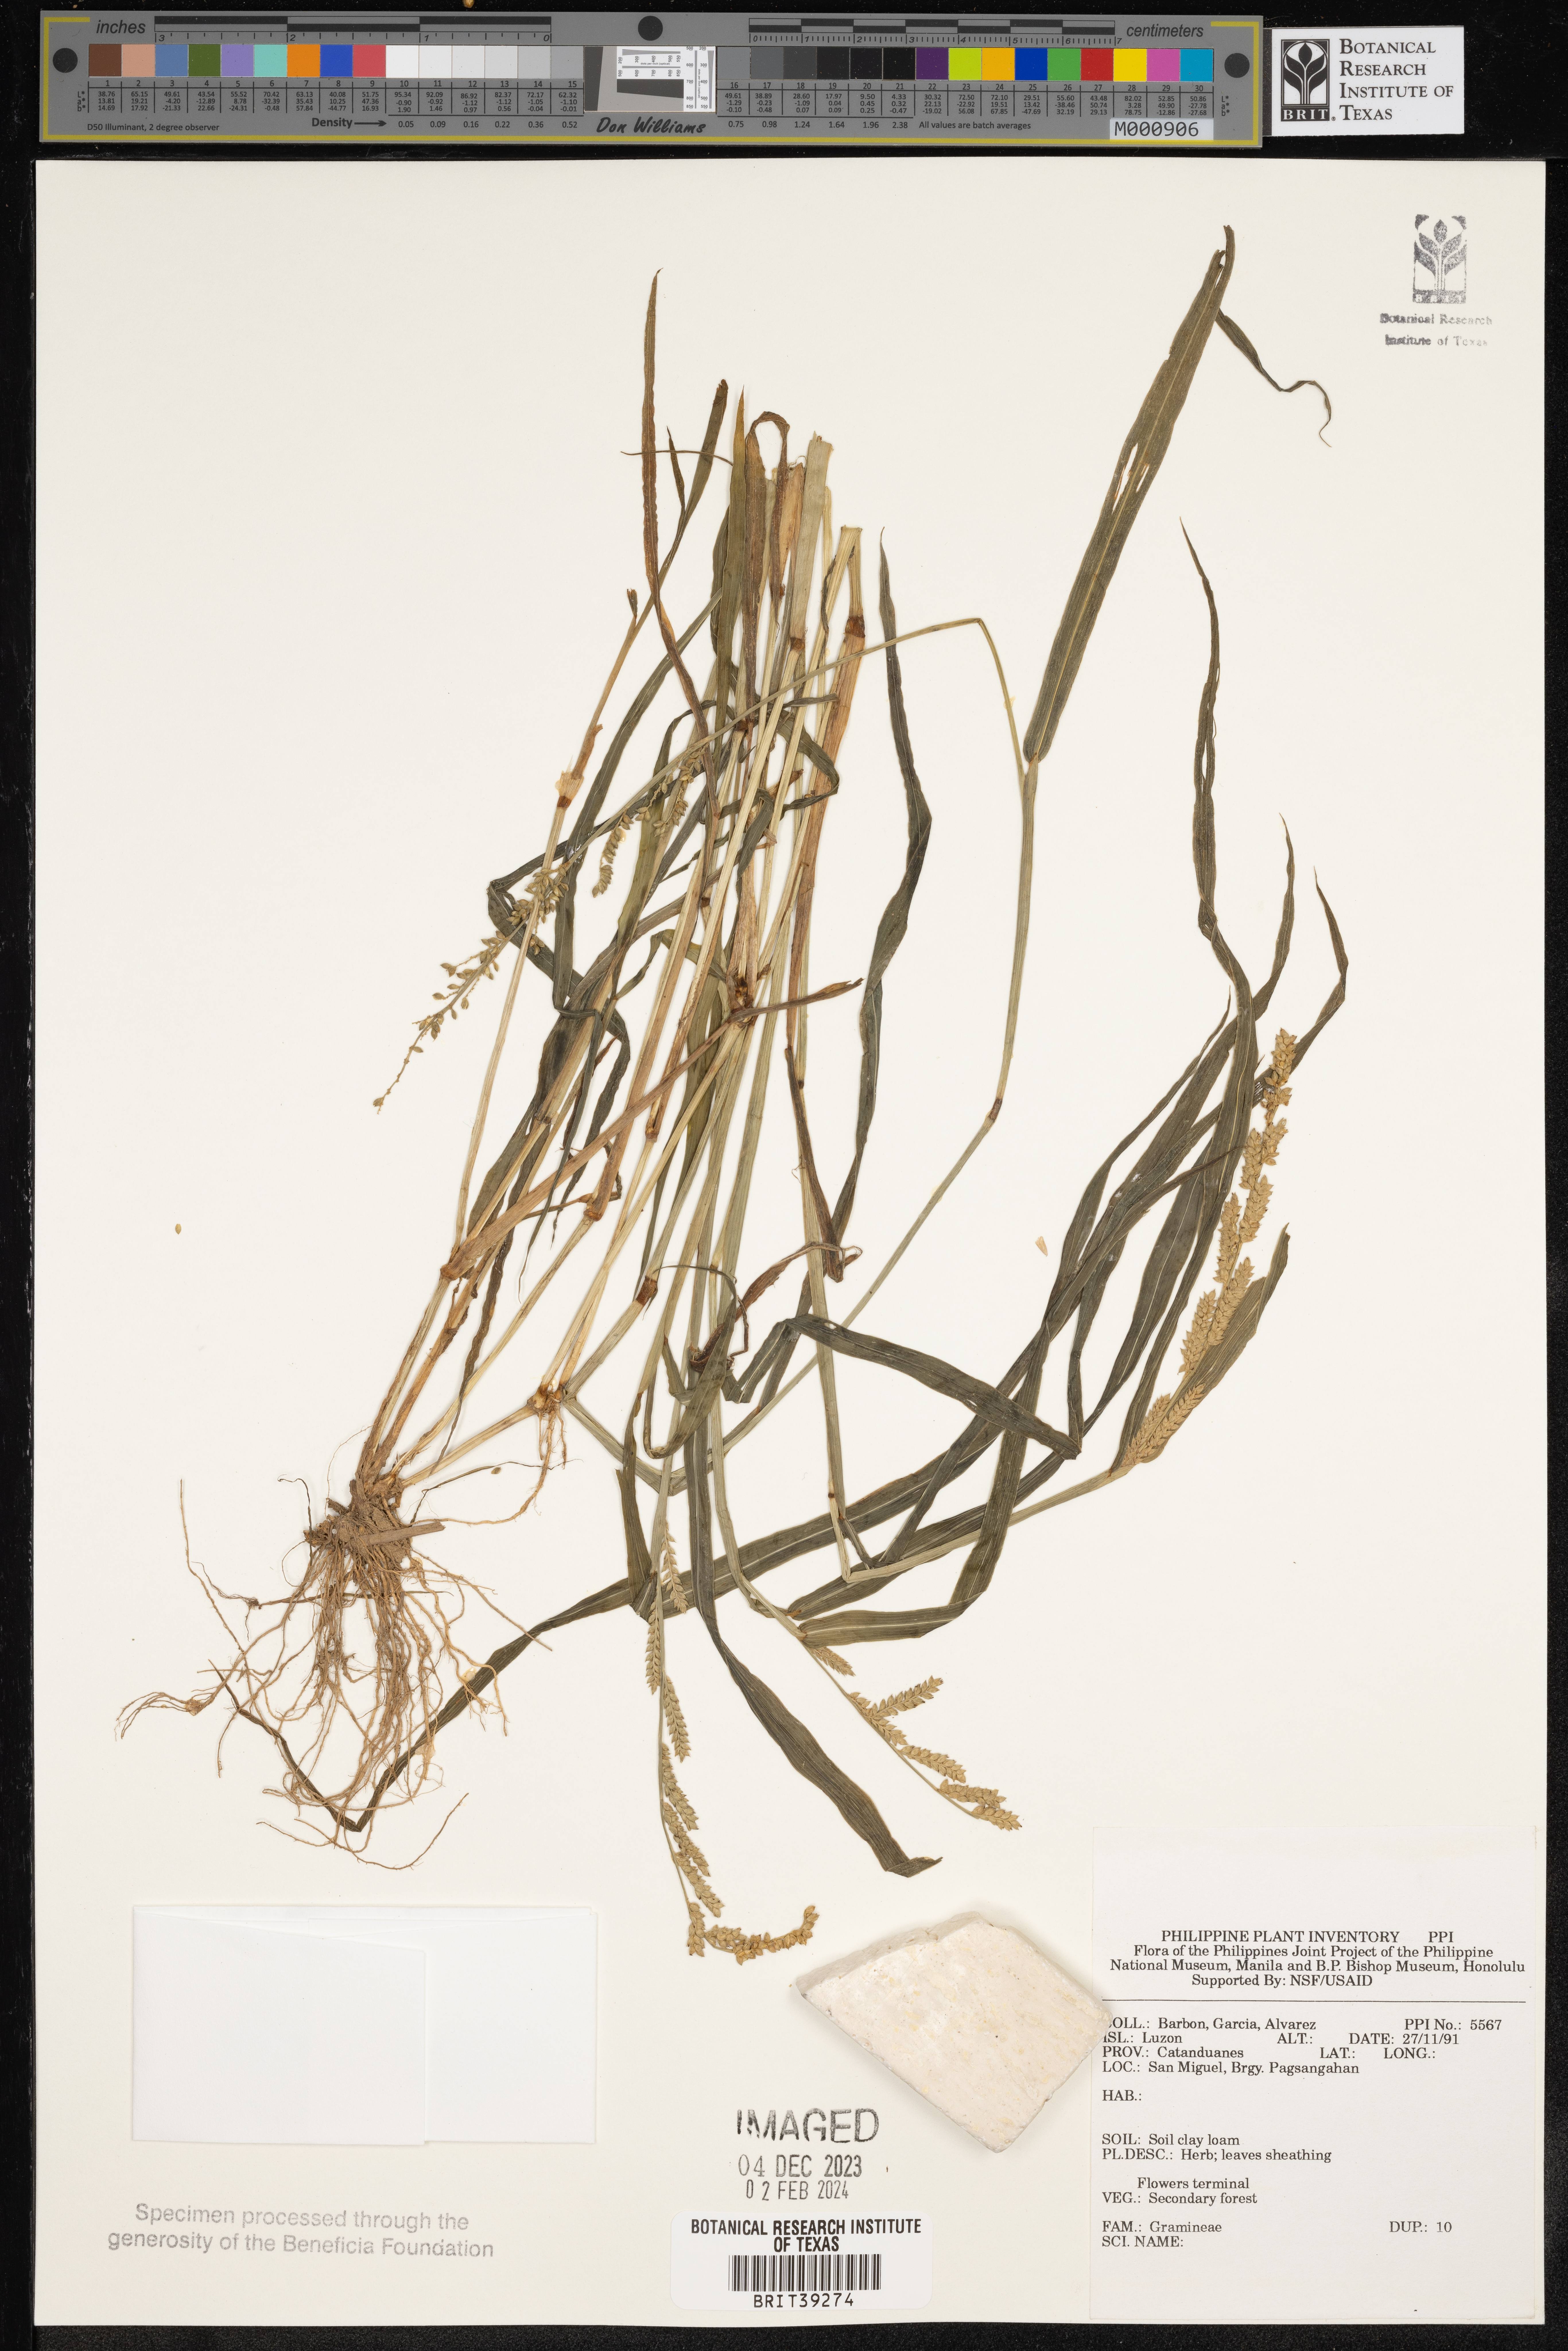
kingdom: Plantae
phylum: Tracheophyta
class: Liliopsida
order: Poales
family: Poaceae
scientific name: Poaceae
